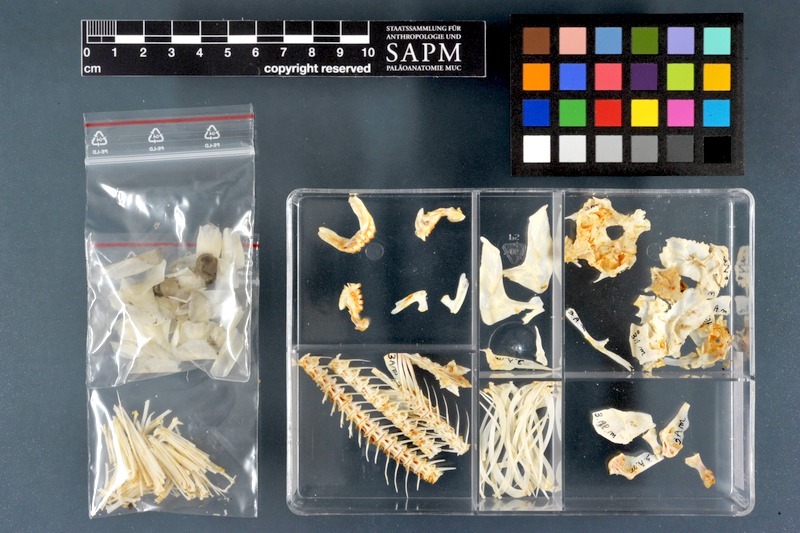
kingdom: Animalia
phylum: Chordata
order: Characiformes
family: Alestidae
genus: Brycinus
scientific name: Brycinus macrolepidotus
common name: Characin
